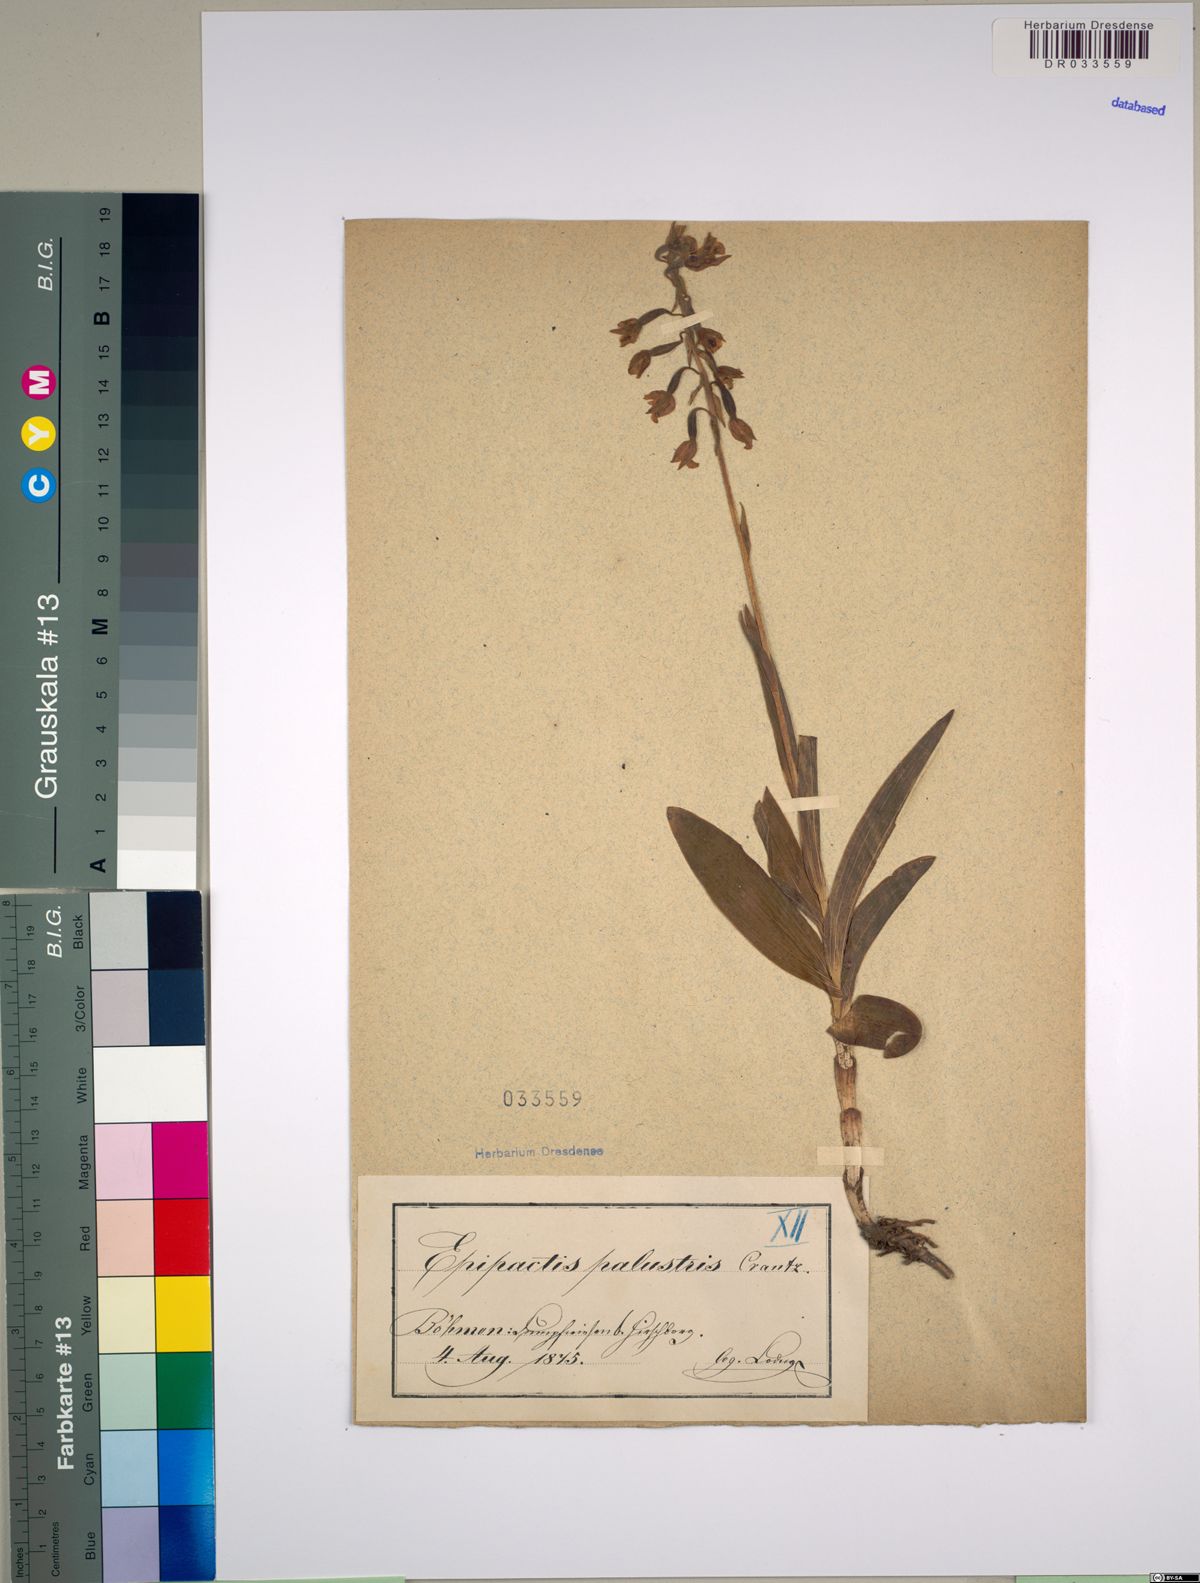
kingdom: Plantae
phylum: Tracheophyta
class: Liliopsida
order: Asparagales
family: Orchidaceae
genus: Epipactis
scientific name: Epipactis palustris
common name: Marsh helleborine
